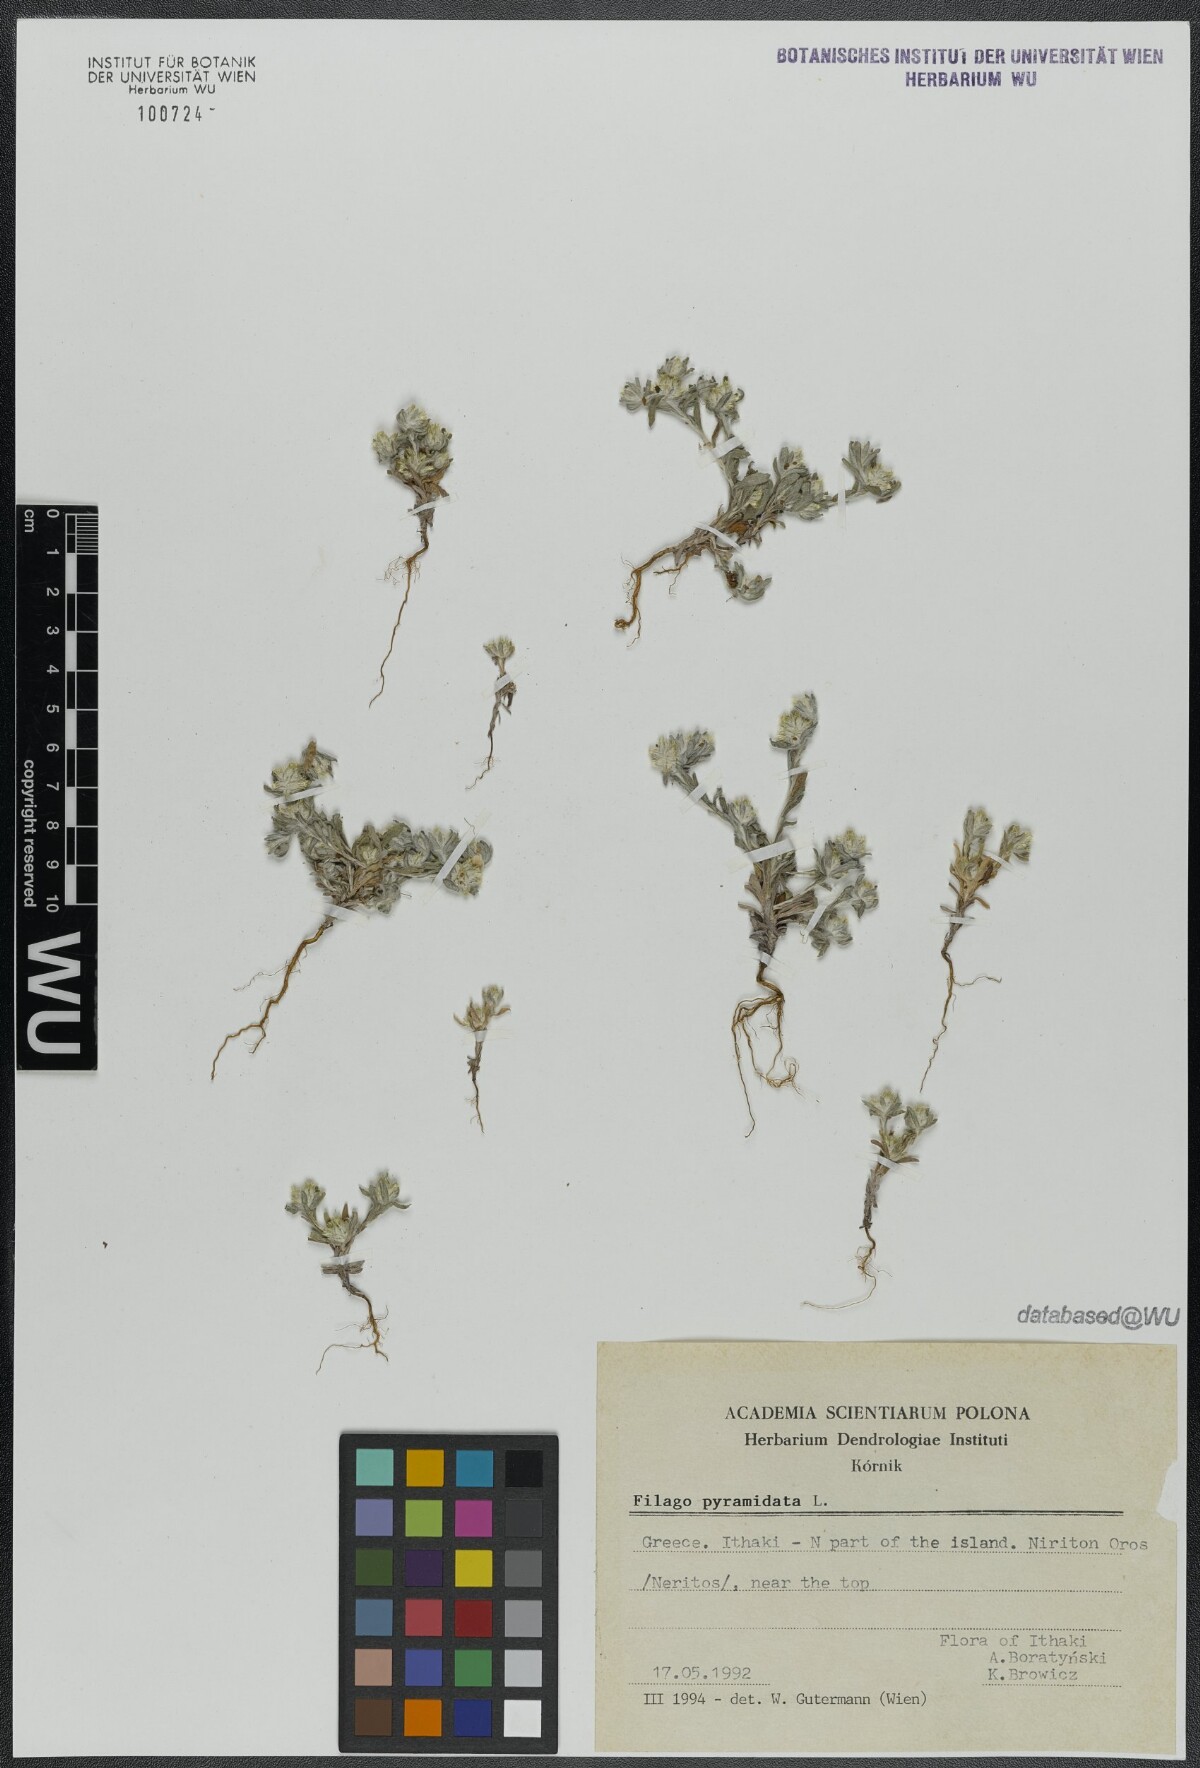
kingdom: Plantae
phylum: Tracheophyta
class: Magnoliopsida
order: Asterales
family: Asteraceae
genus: Filago
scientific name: Filago pyramidata
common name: Broad-leaved cudweed
